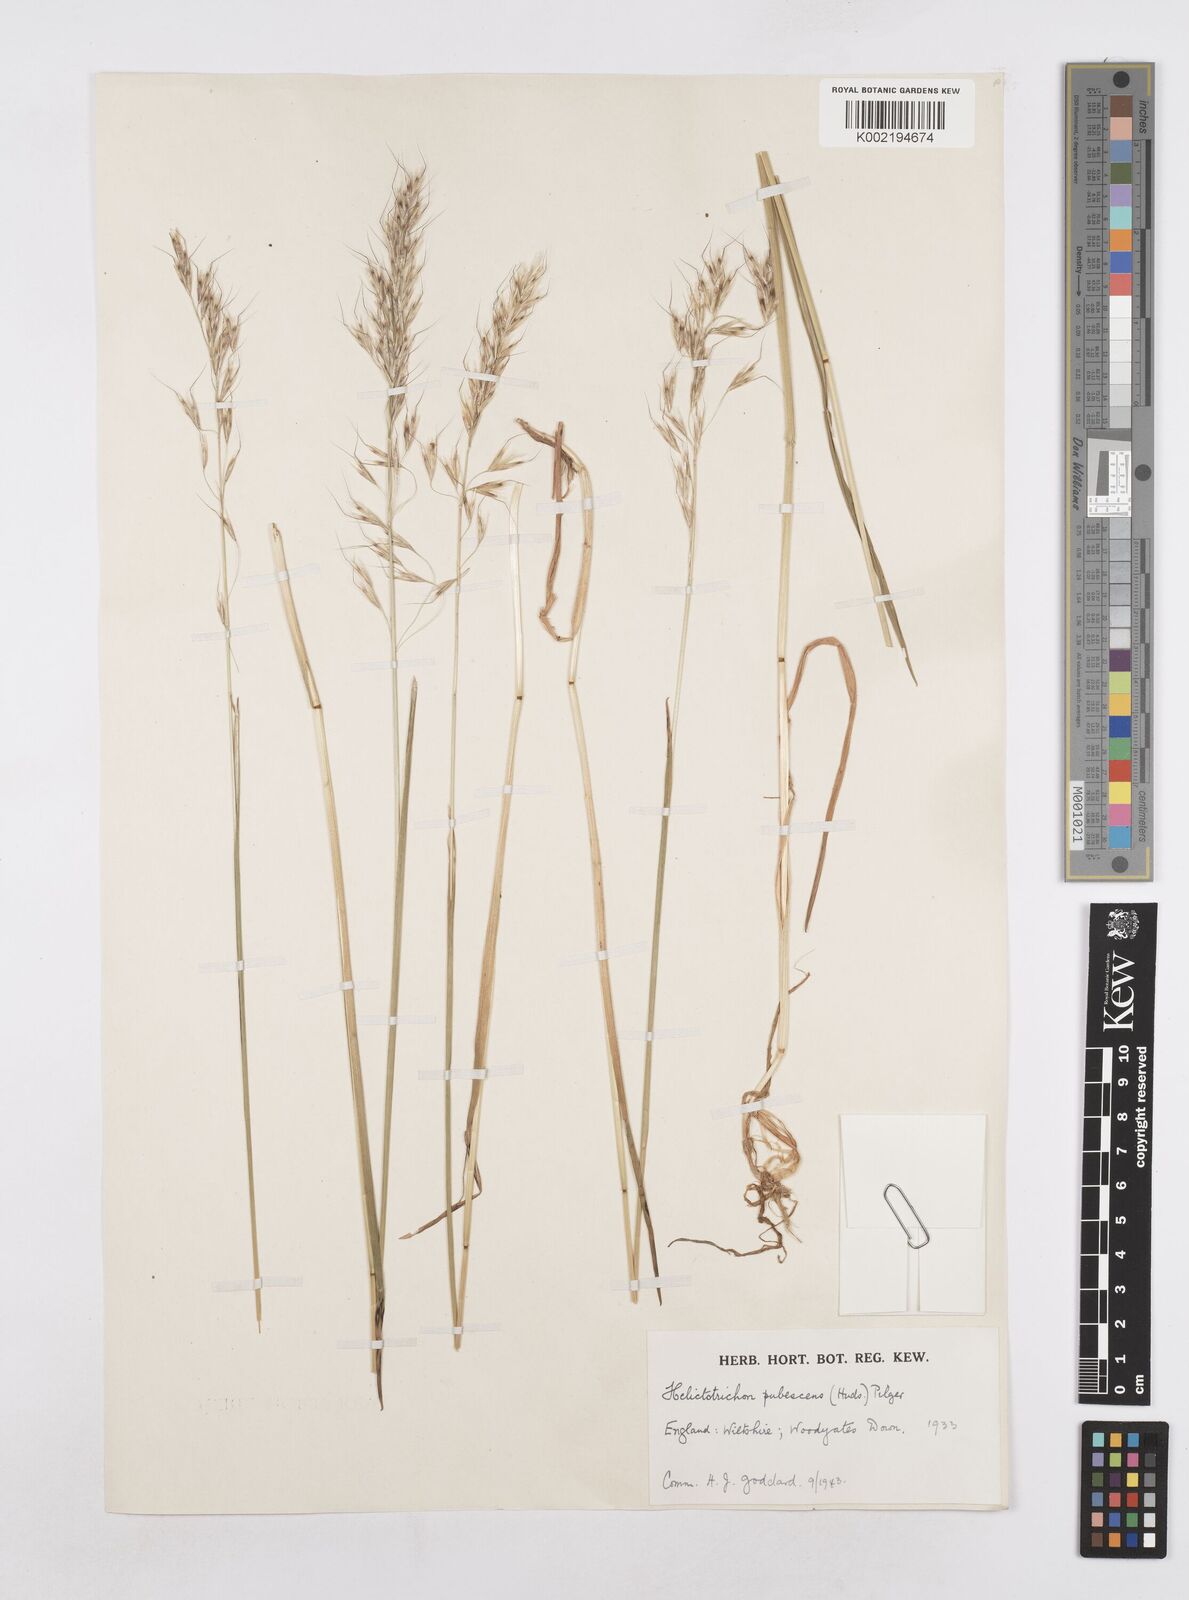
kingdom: Plantae
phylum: Tracheophyta
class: Liliopsida
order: Poales
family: Poaceae
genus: Avenula
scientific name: Avenula pubescens
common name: Downy alpine oatgrass
